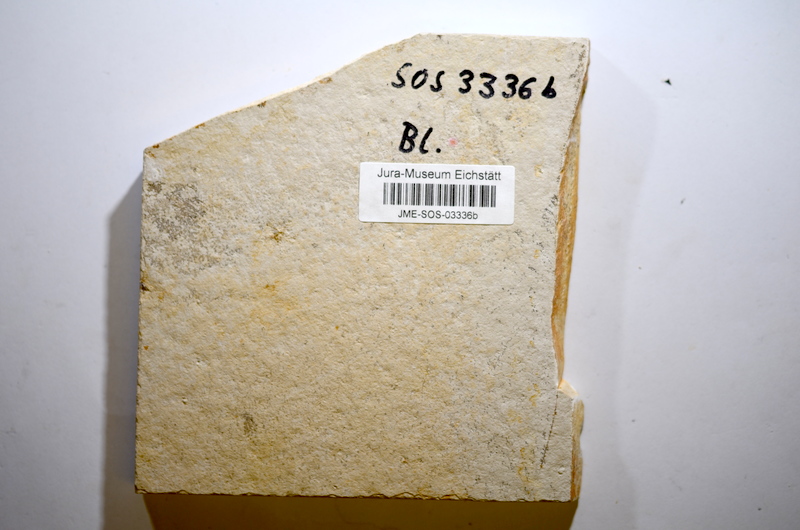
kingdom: Animalia
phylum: Chordata
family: Pachycormidae
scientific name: Pachycormidae
